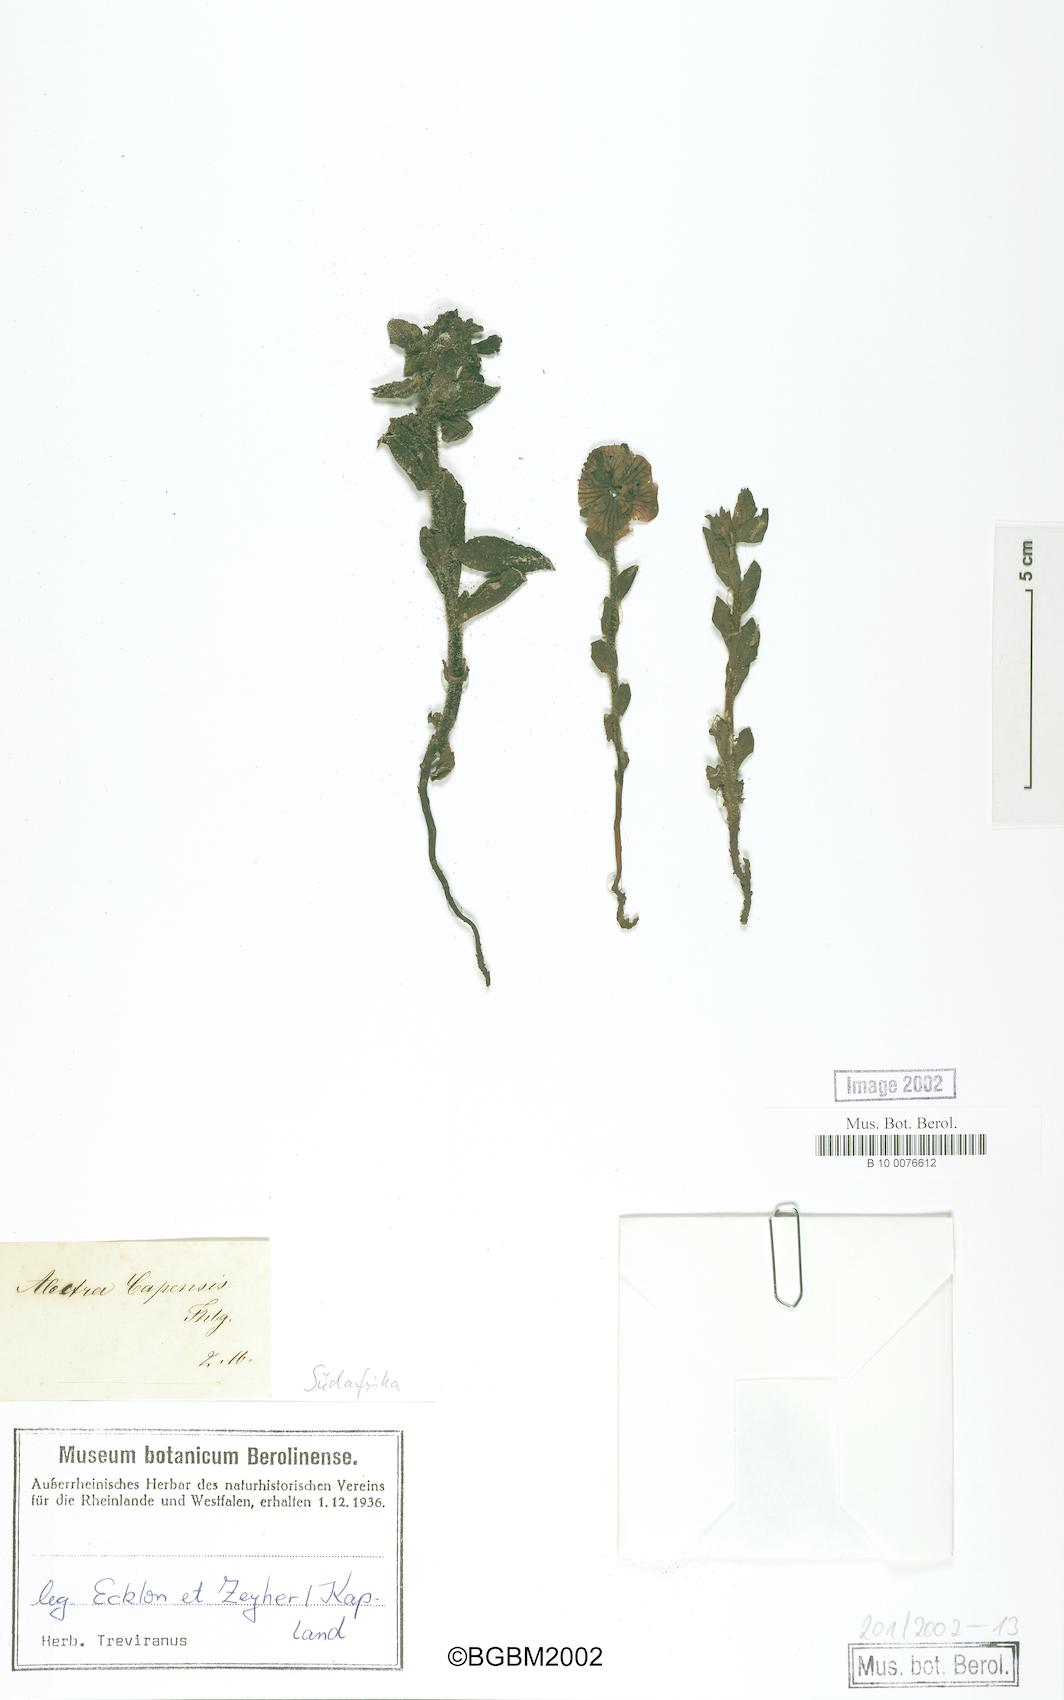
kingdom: Plantae
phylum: Tracheophyta
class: Magnoliopsida
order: Lamiales
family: Orobanchaceae
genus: Alectra
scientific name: Alectra capensis
